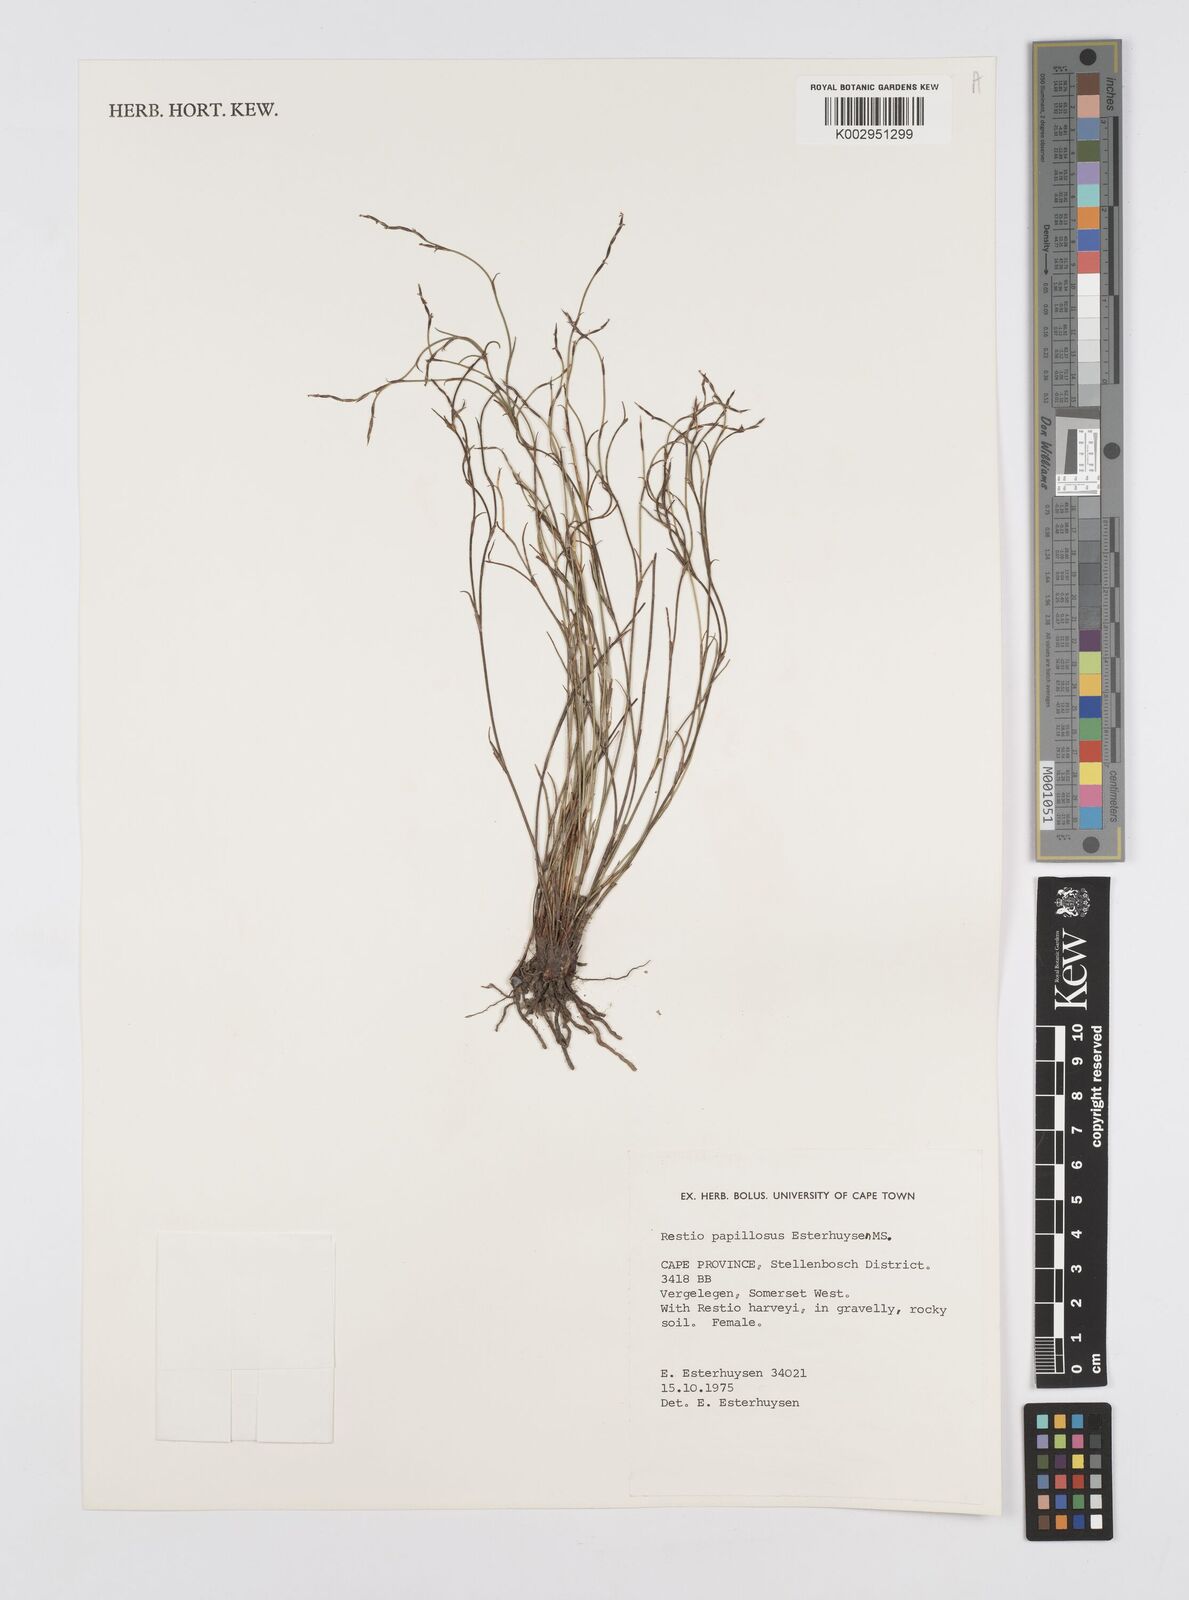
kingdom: Plantae
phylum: Tracheophyta
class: Liliopsida
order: Poales
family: Restionaceae
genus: Restio
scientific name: Restio papillosus
